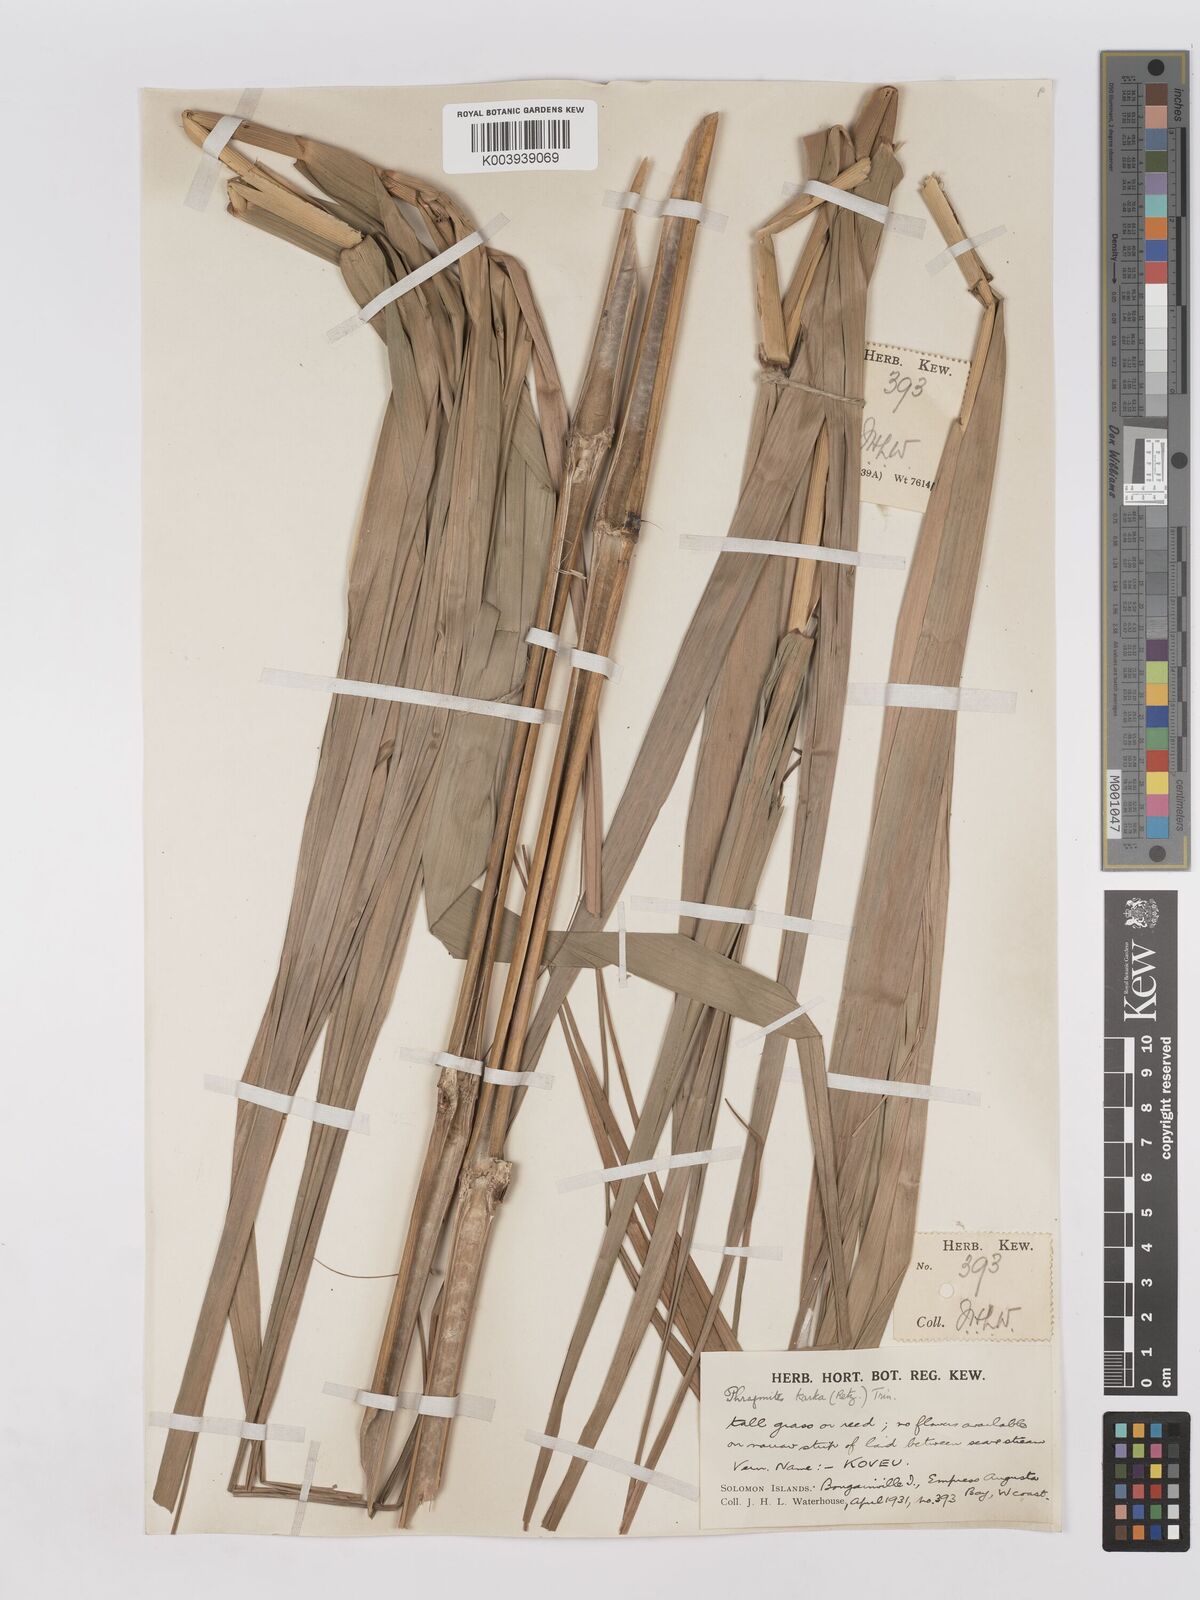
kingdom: Plantae
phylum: Tracheophyta
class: Liliopsida
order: Poales
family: Poaceae
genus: Phragmites
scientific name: Phragmites karka
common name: Tropical reed
